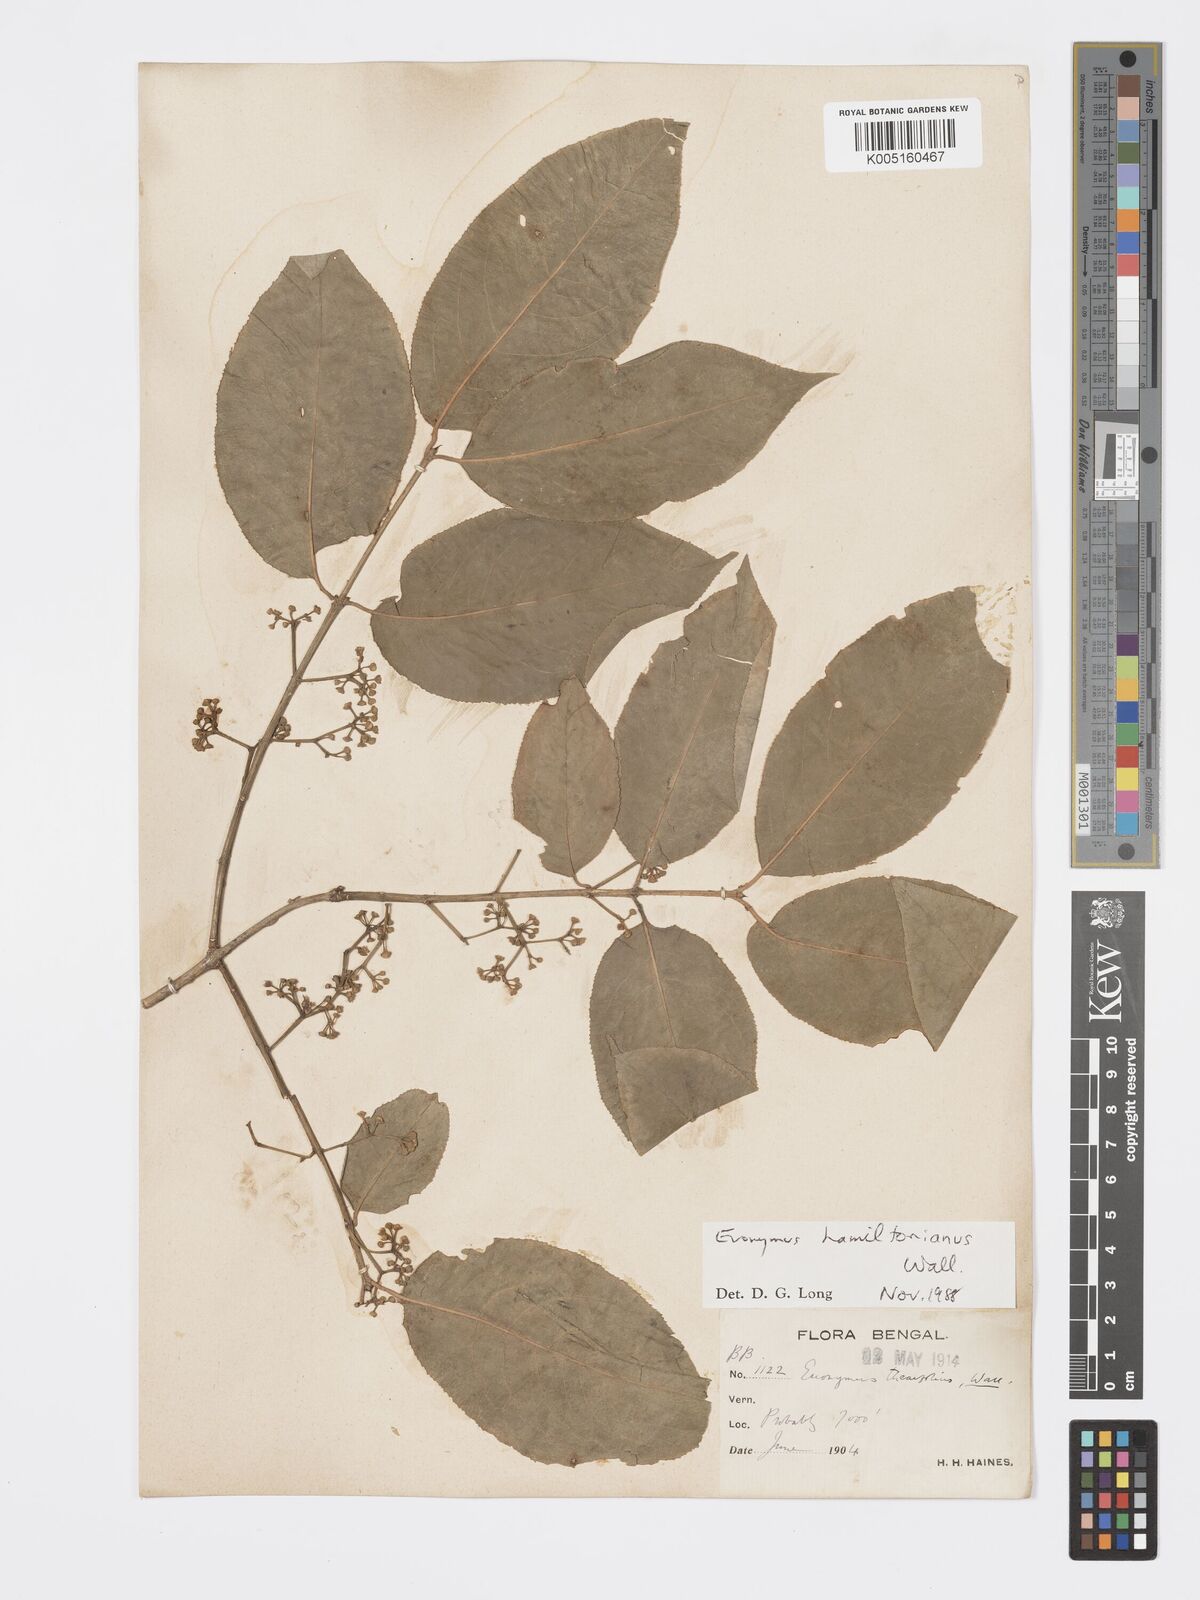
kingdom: Plantae
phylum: Tracheophyta
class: Magnoliopsida
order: Celastrales
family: Celastraceae
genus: Euonymus
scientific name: Euonymus
